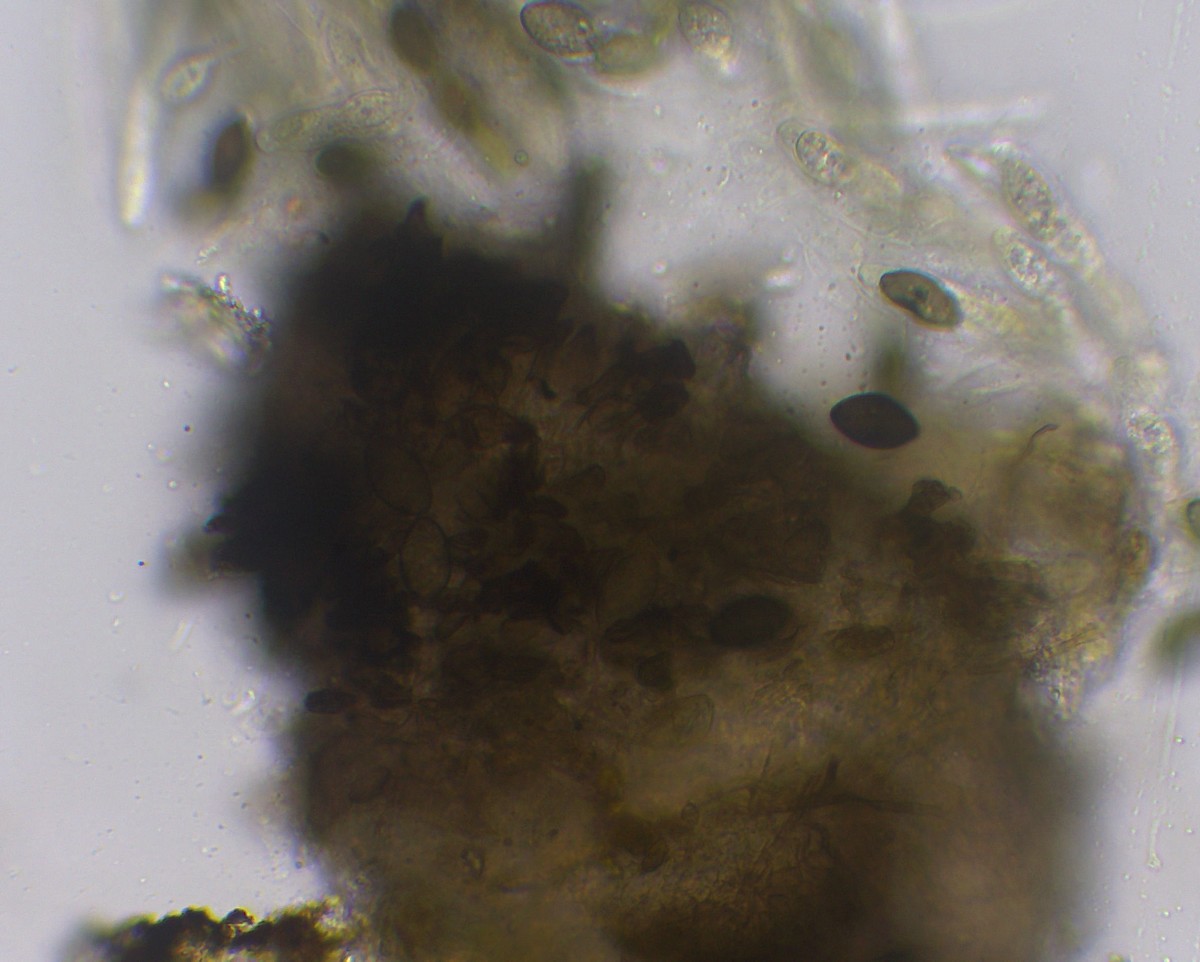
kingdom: Fungi
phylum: Ascomycota
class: Sordariomycetes
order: Sordariales
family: Neoschizotheciaceae
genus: Neoschizothecium
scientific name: Neoschizothecium tetrasporum
